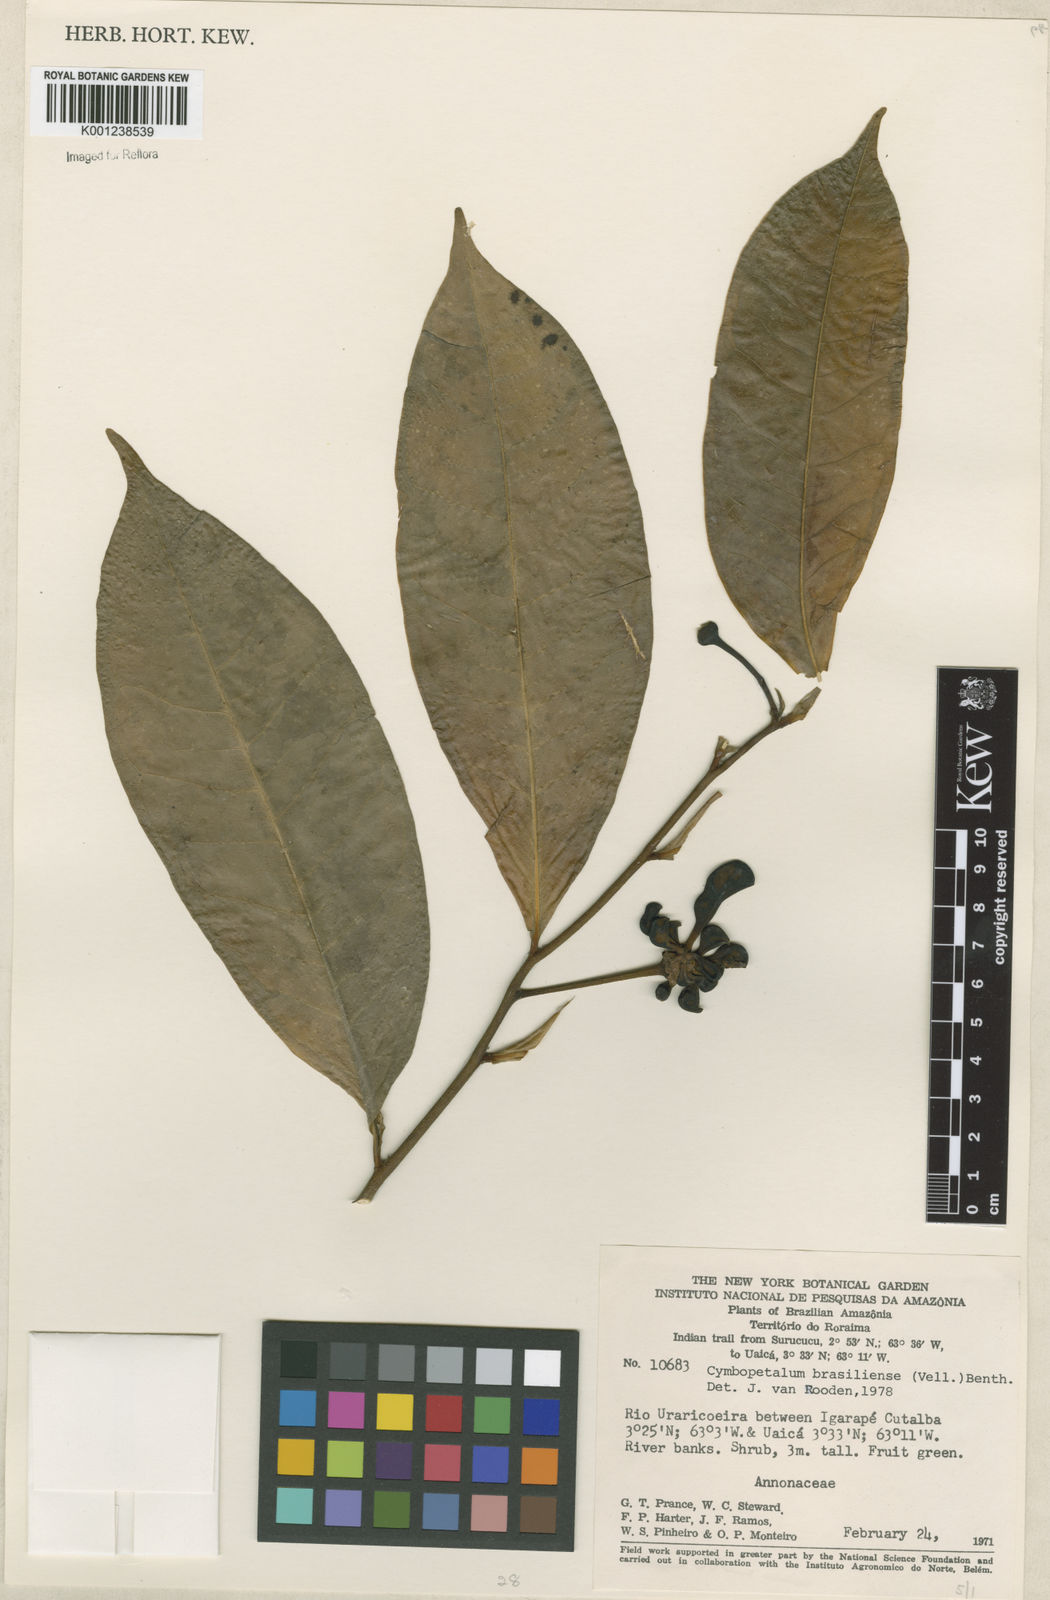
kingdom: Plantae
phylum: Tracheophyta
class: Magnoliopsida
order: Magnoliales
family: Annonaceae
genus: Cymbopetalum
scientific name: Cymbopetalum brasiliense
